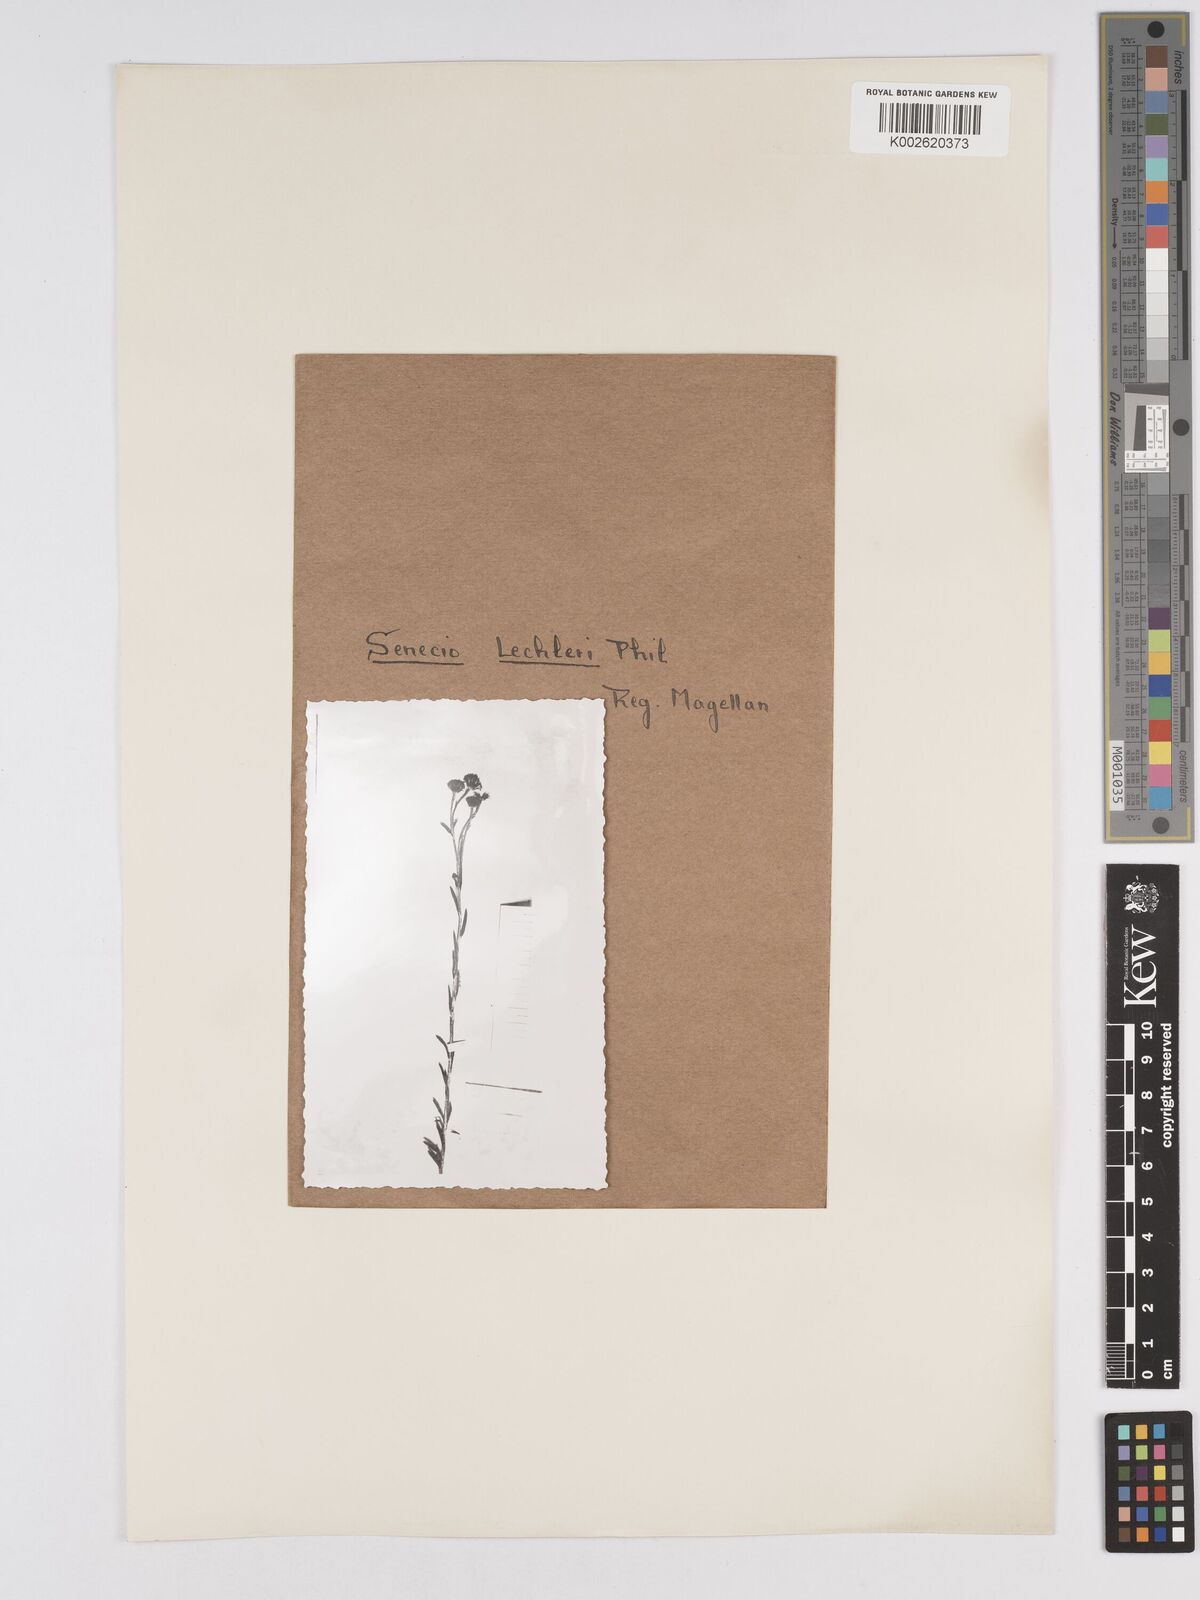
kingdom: Plantae
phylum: Tracheophyta
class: Magnoliopsida
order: Asterales
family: Asteraceae
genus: Senecio
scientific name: Senecio patagonicus
